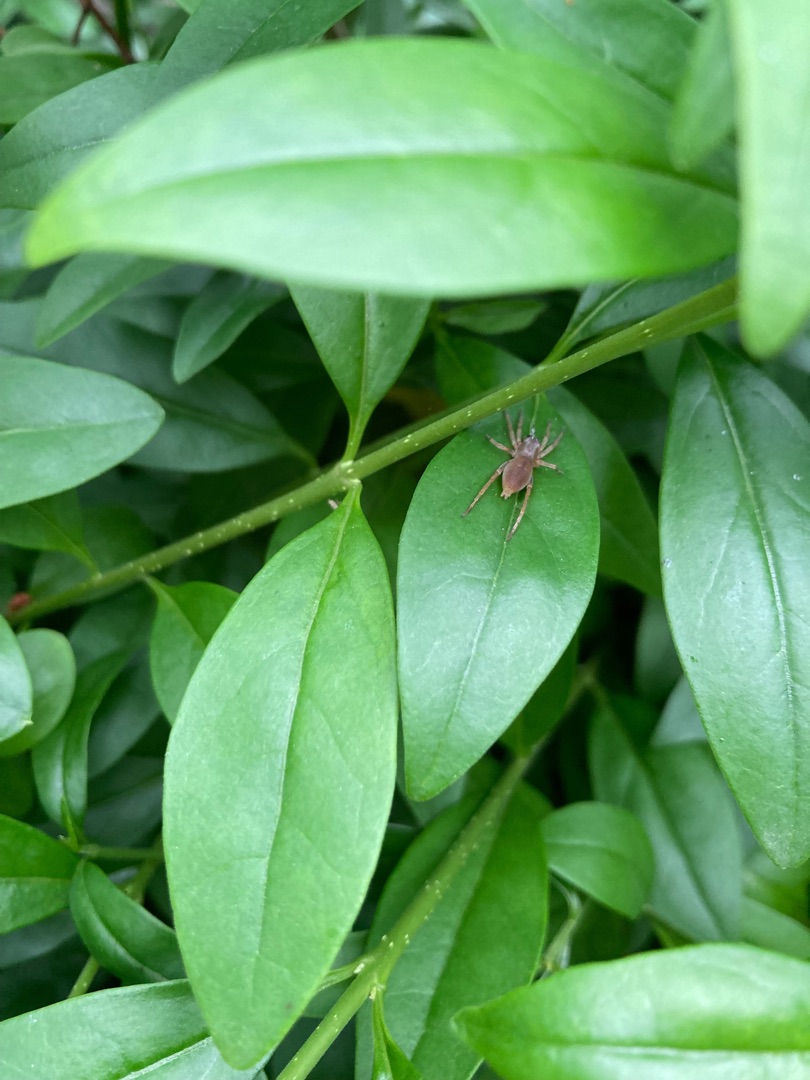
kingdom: Animalia
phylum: Arthropoda
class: Arachnida
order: Araneae
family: Clubionidae
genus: Clubiona
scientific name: Clubiona
